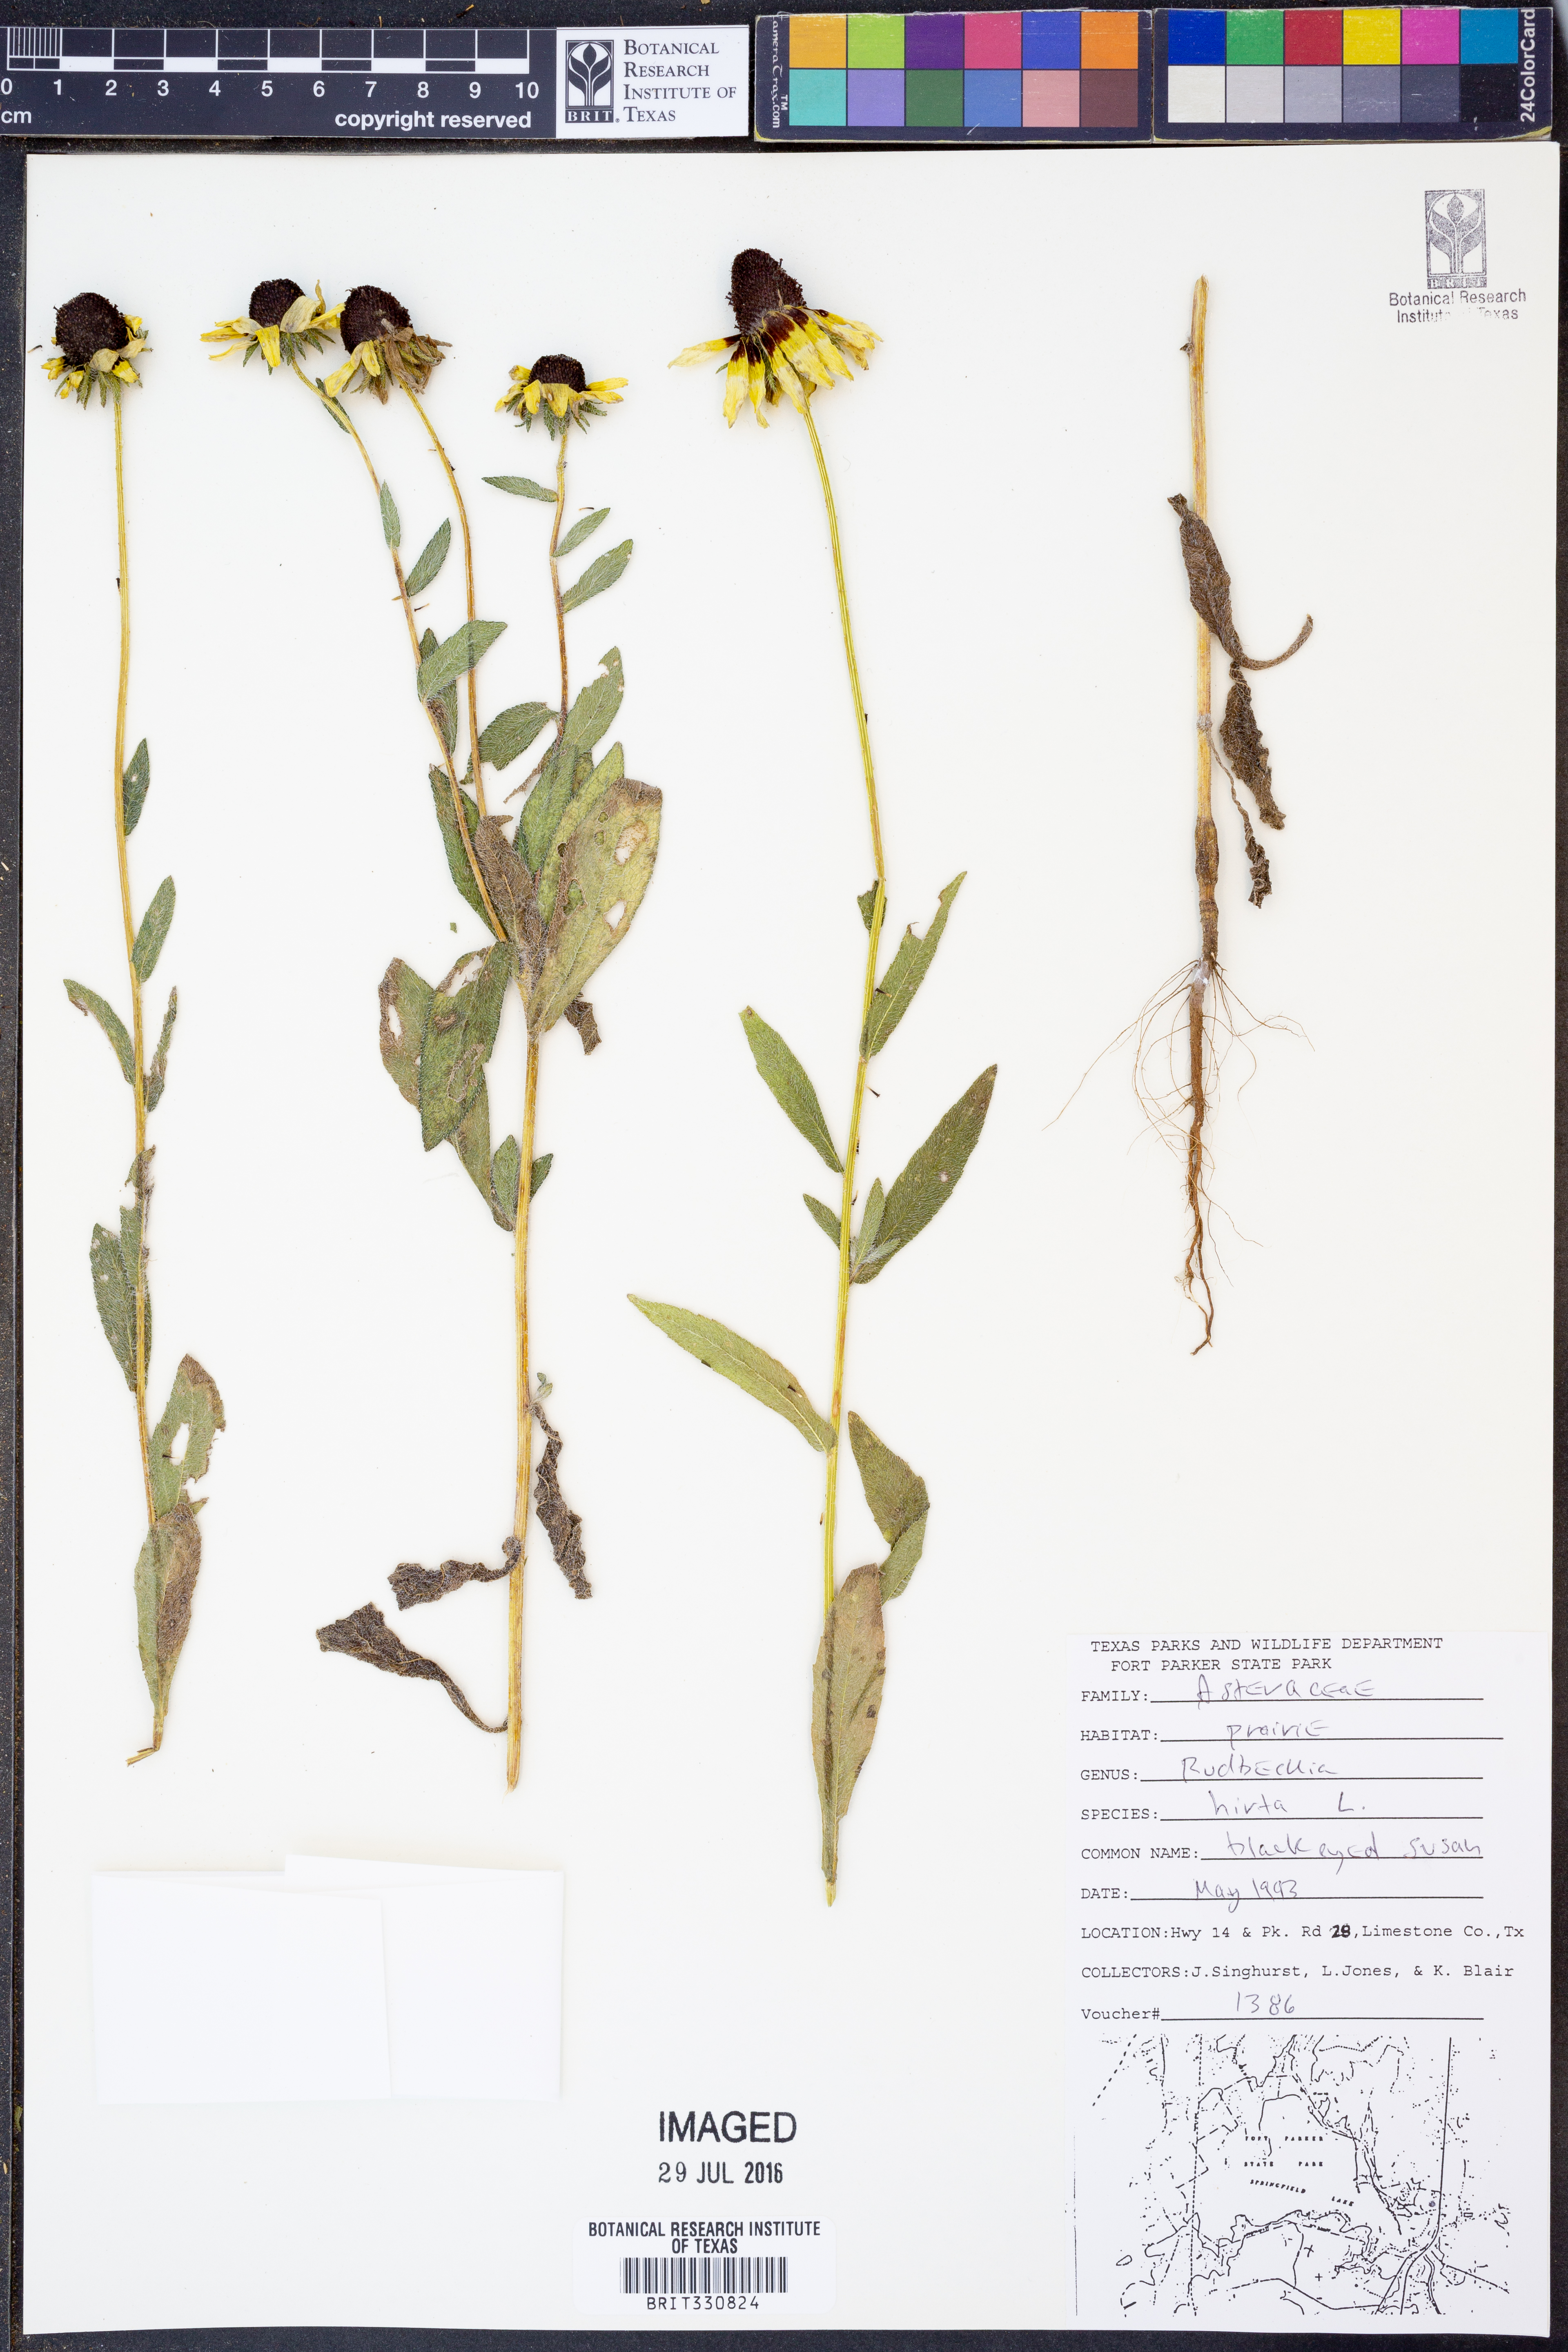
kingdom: Plantae
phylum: Tracheophyta
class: Magnoliopsida
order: Asterales
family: Asteraceae
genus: Rudbeckia
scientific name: Rudbeckia hirta
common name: Black-eyed-susan
